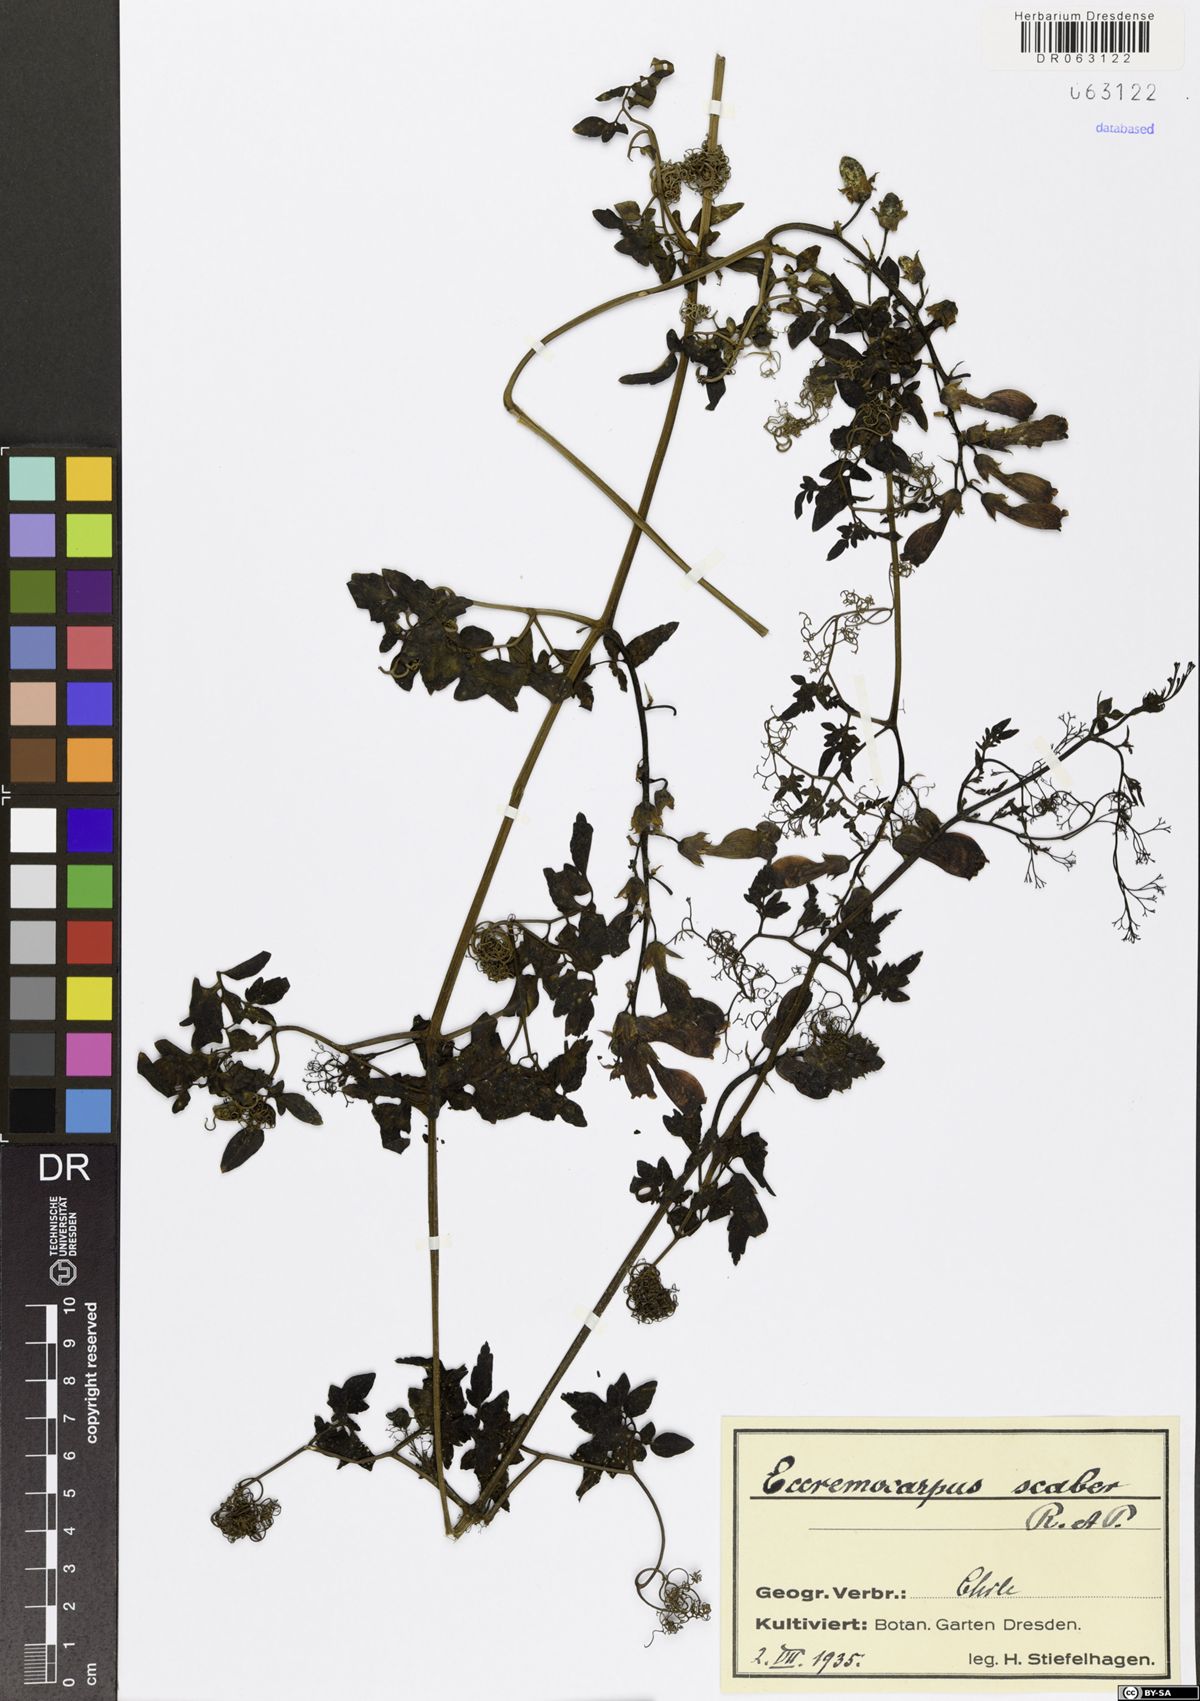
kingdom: Plantae
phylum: Tracheophyta
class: Magnoliopsida
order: Lamiales
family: Bignoniaceae
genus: Eccremocarpus
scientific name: Eccremocarpus scaber
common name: Chilean glory-flower
